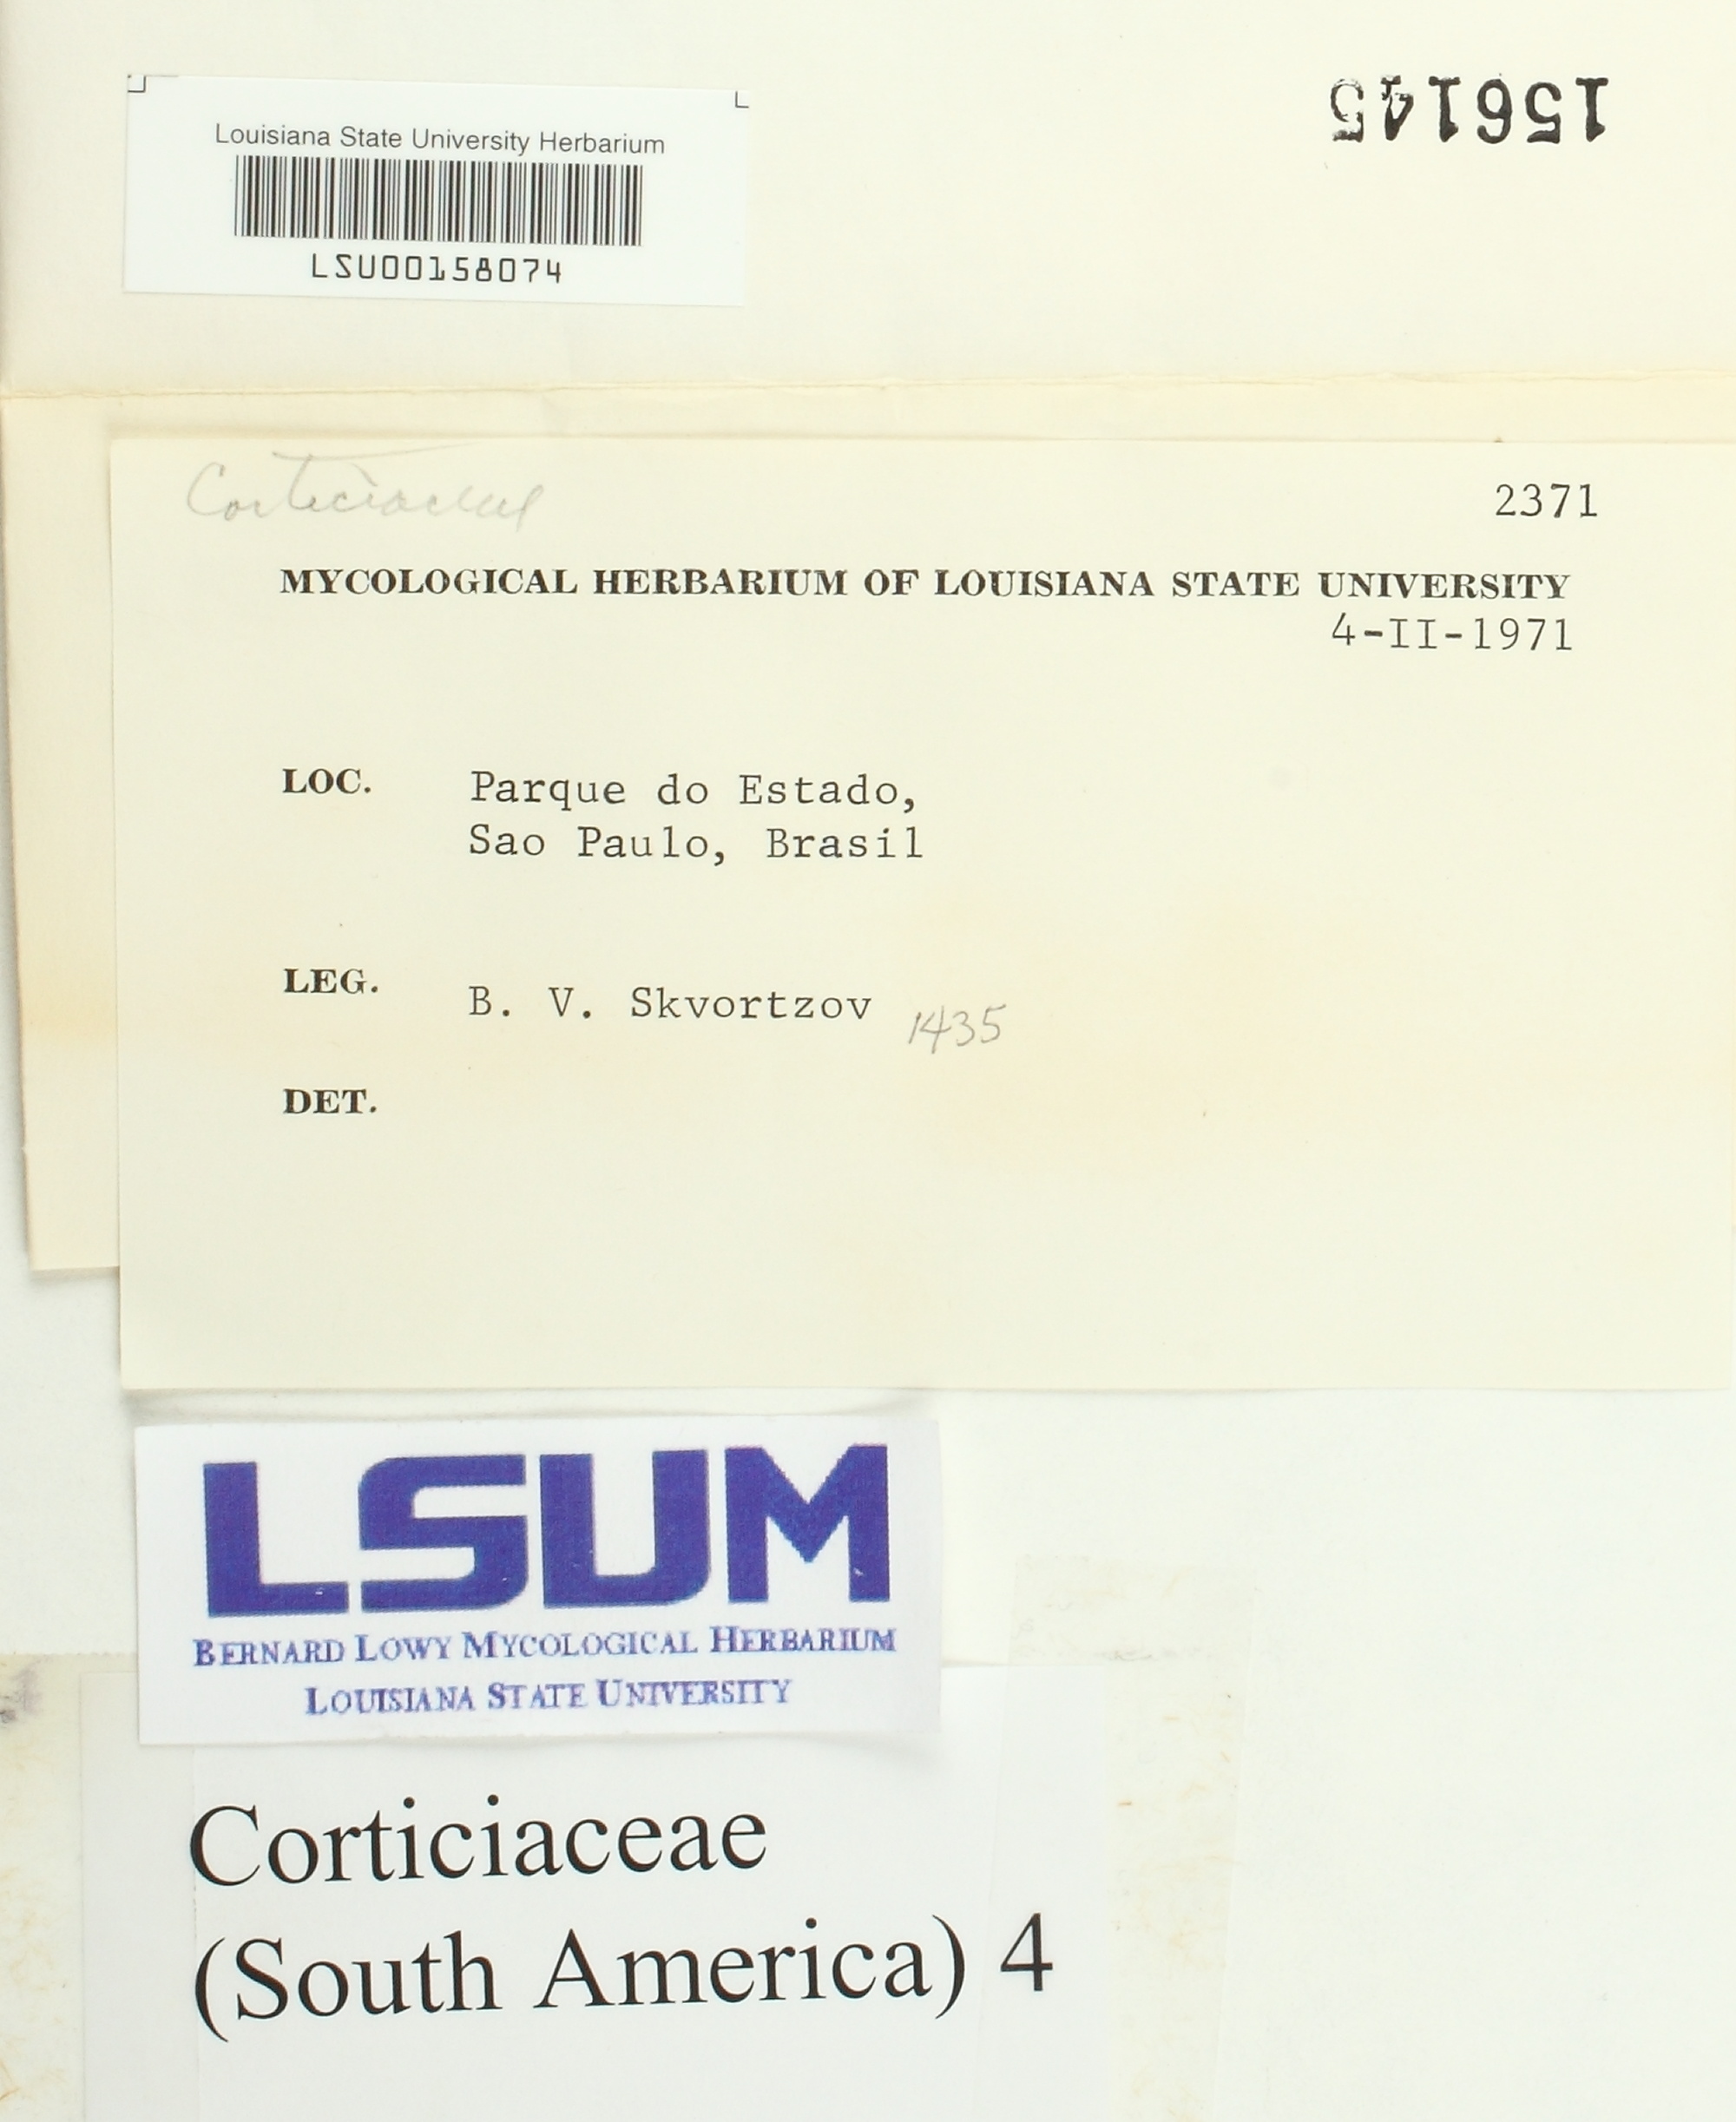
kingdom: Fungi
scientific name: Fungi
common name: Fungi
